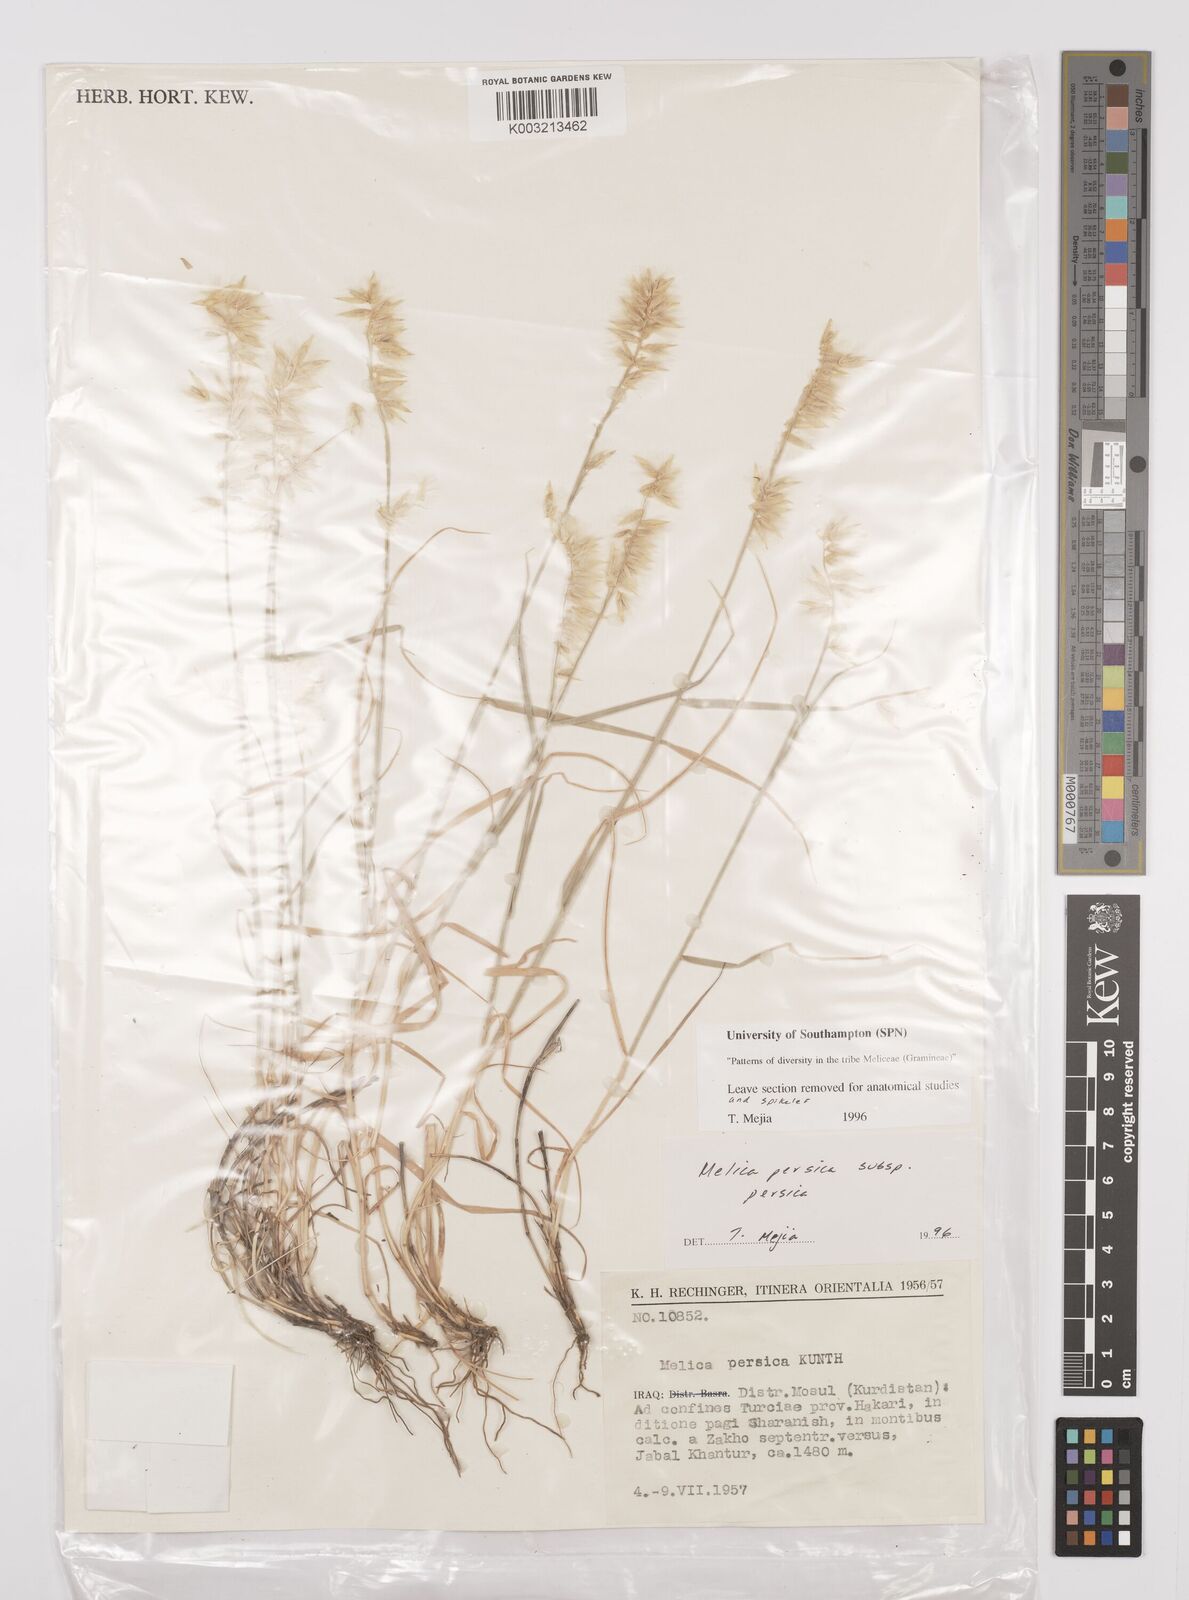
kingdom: Plantae
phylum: Tracheophyta
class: Liliopsida
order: Poales
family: Poaceae
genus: Melica
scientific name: Melica persica
